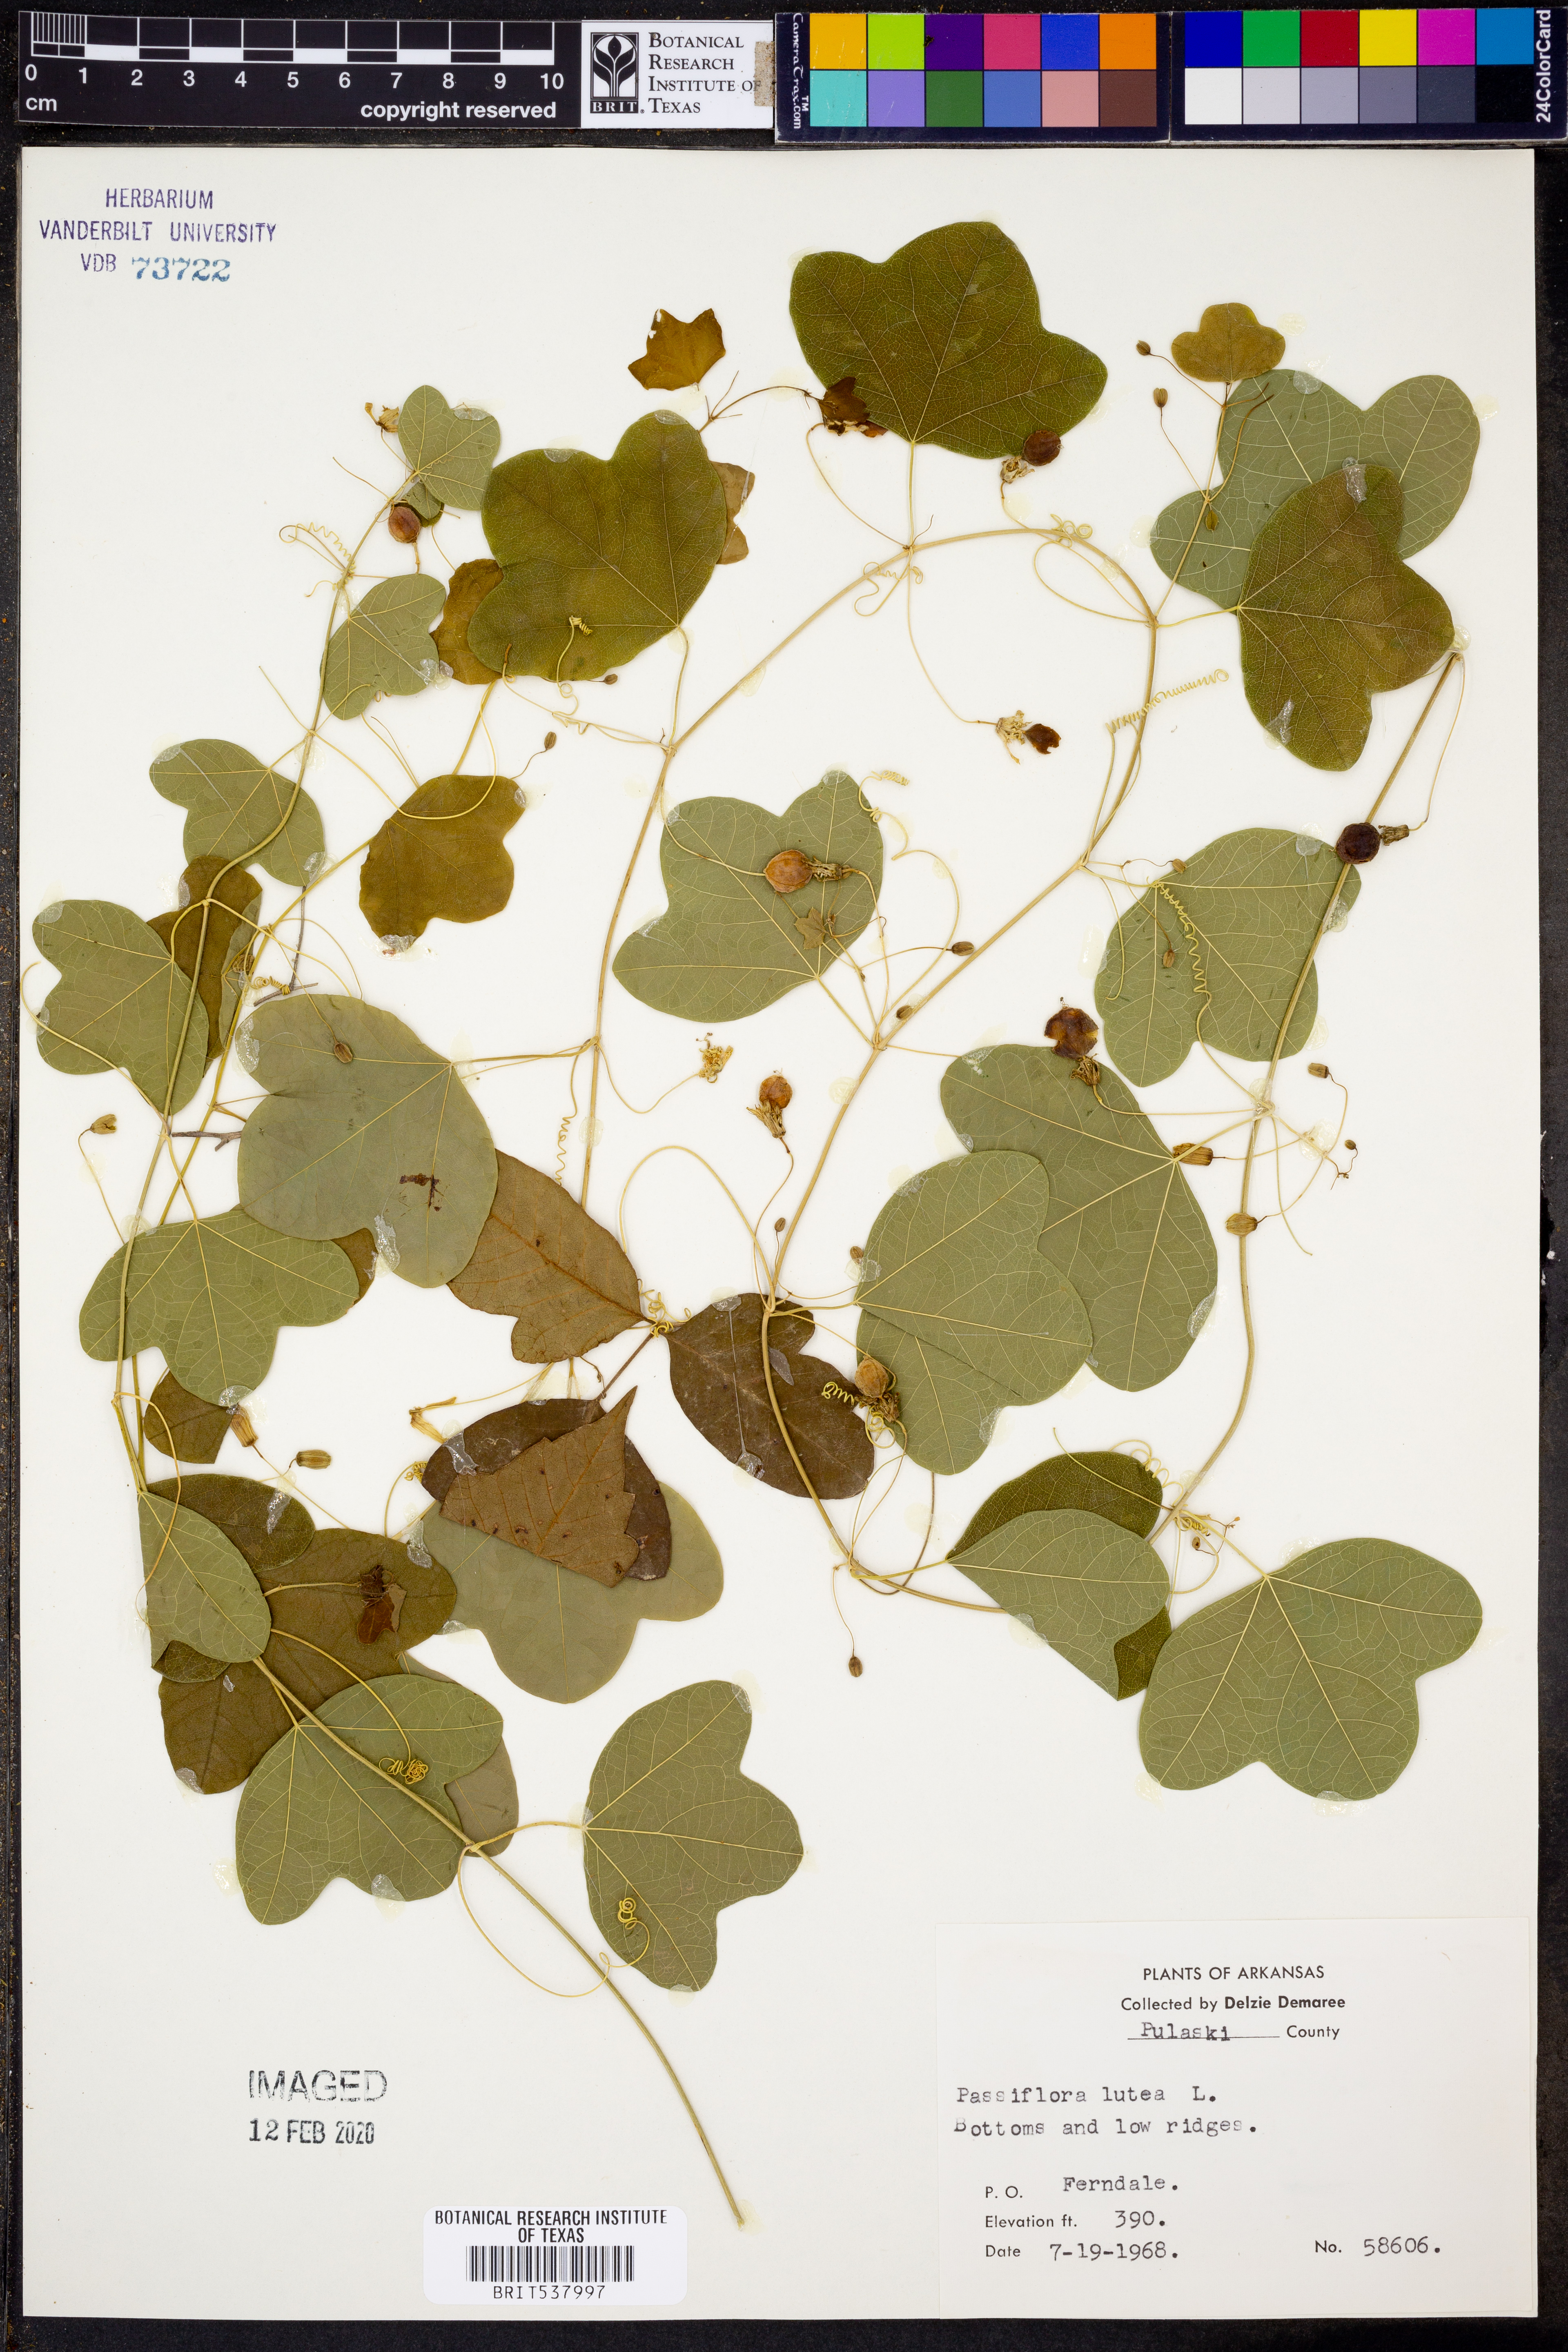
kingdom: Plantae
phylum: Tracheophyta
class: Magnoliopsida
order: Malpighiales
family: Passifloraceae
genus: Passiflora
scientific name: Passiflora lutea
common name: Yellow passionflower
